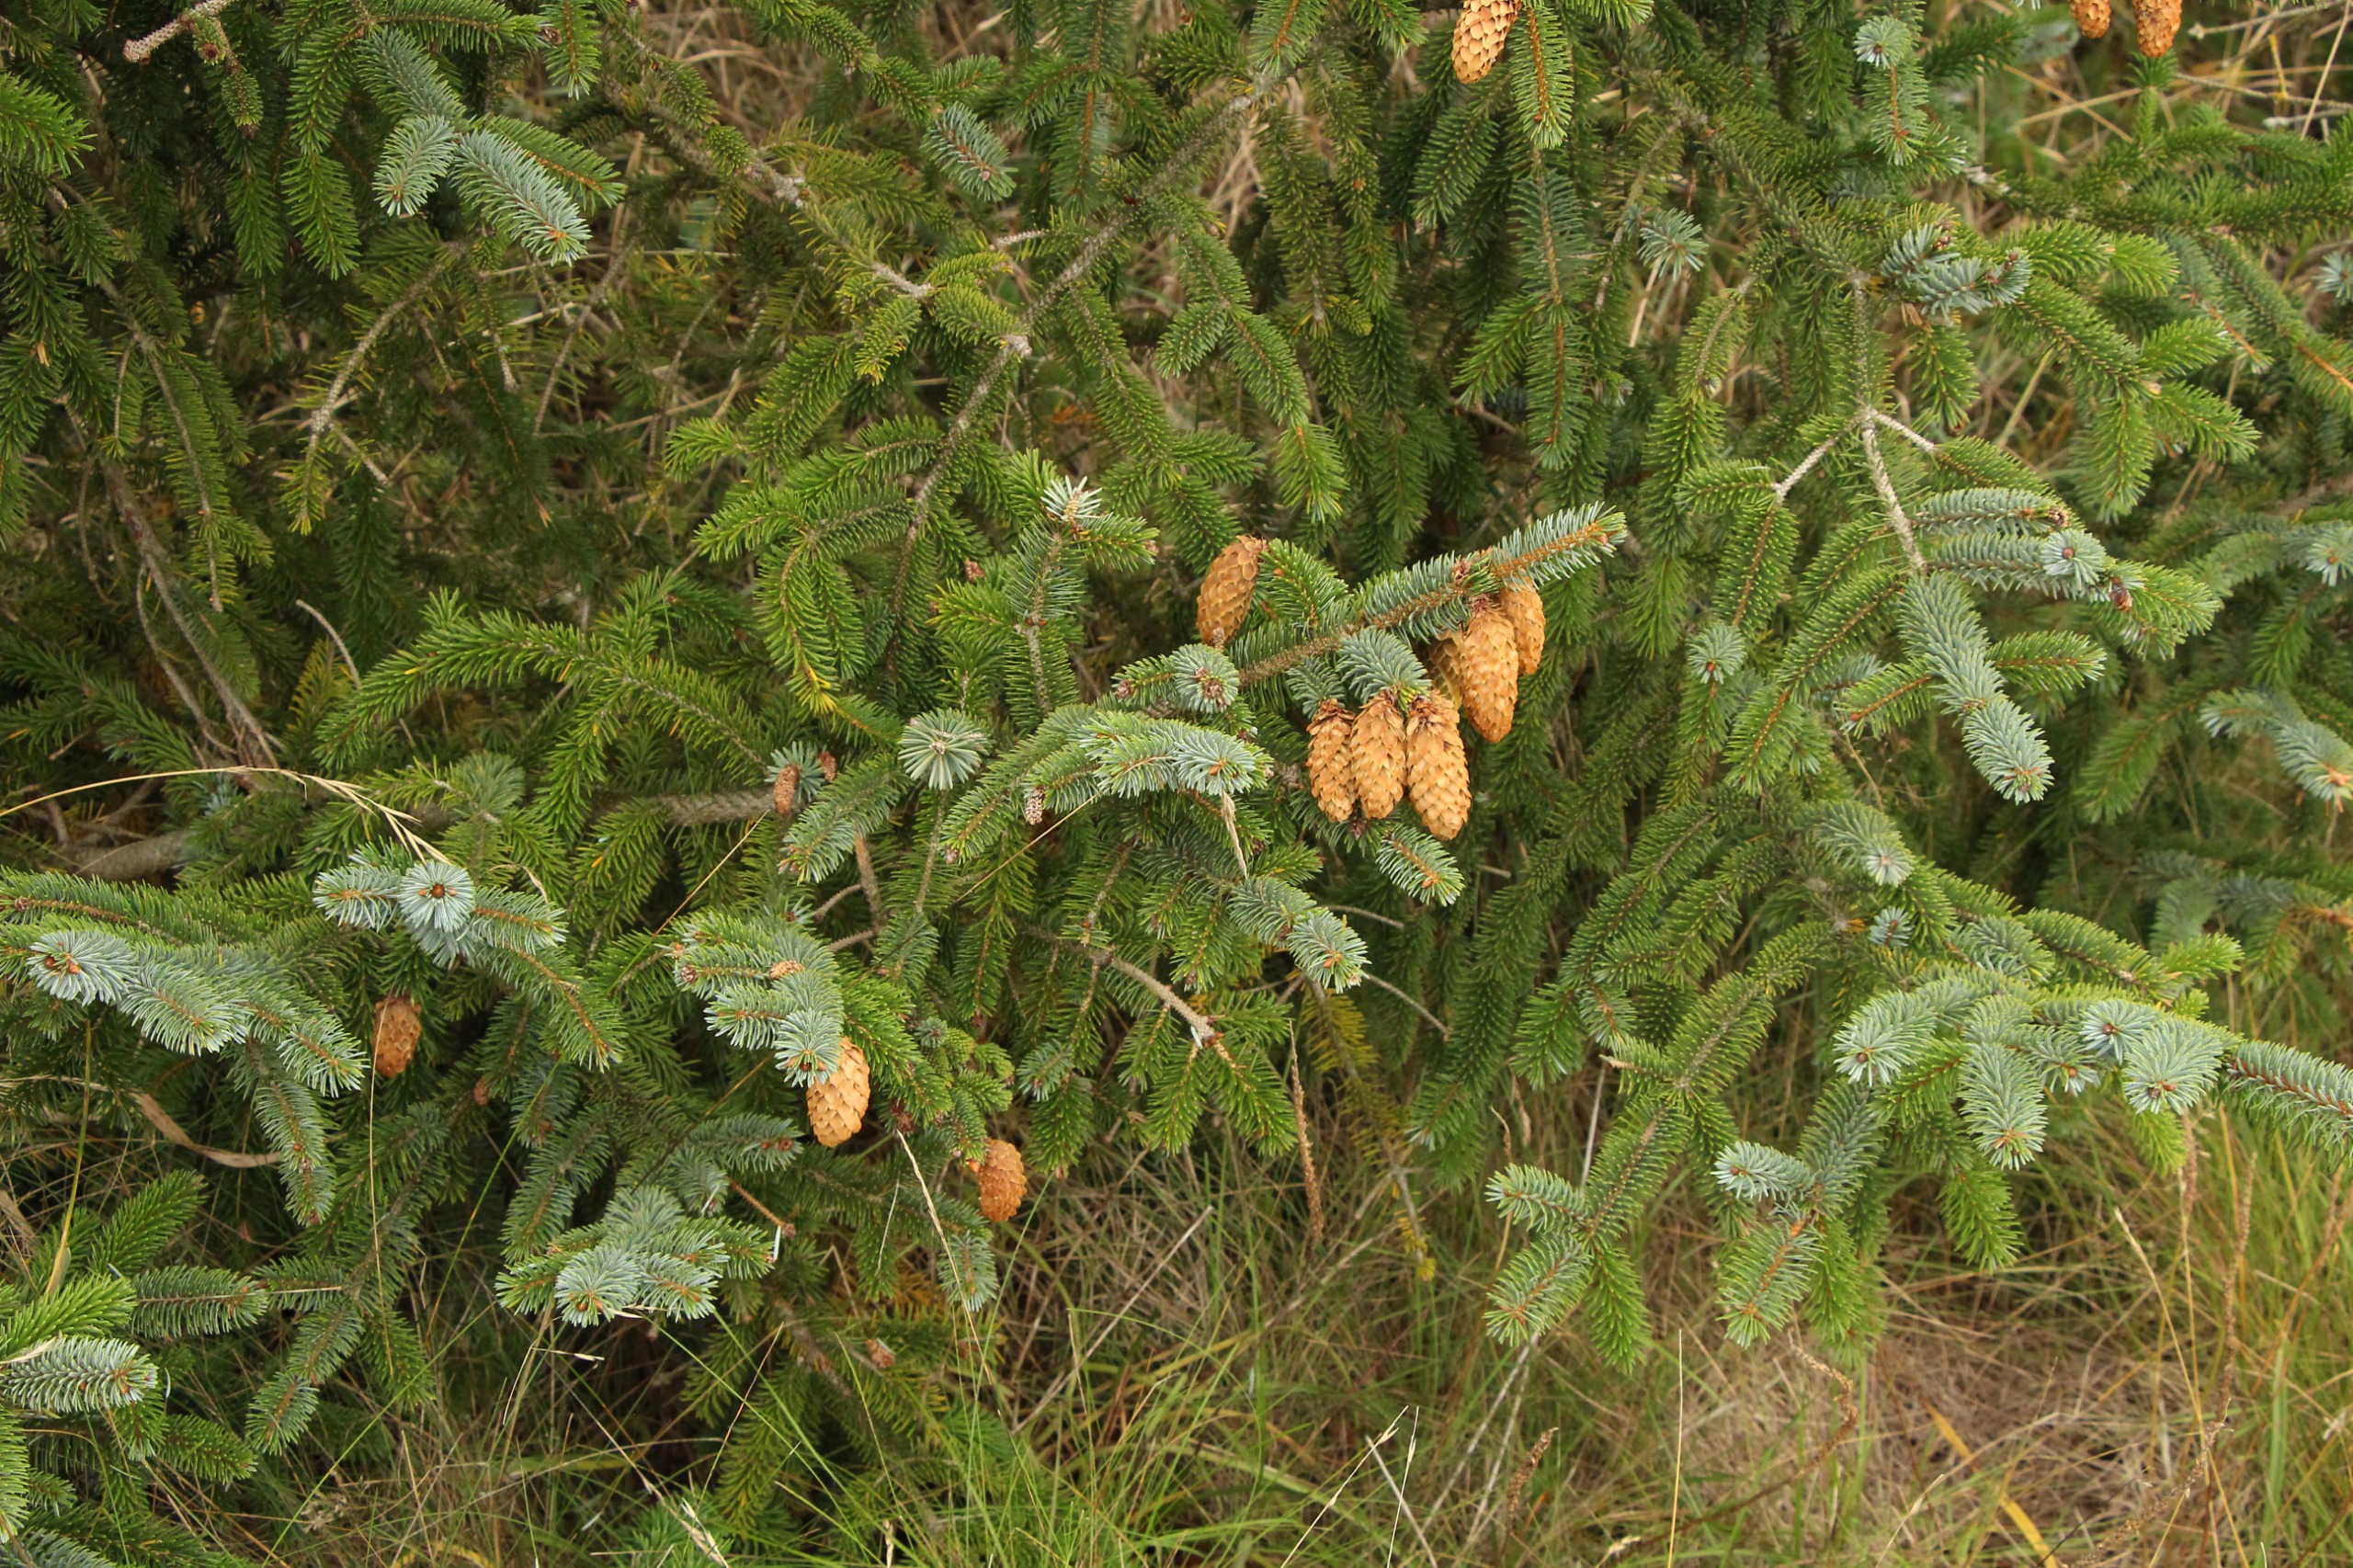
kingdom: Plantae
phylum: Tracheophyta
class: Pinopsida
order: Pinales
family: Pinaceae
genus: Picea
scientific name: Picea sitchensis
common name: Sitka-gran
